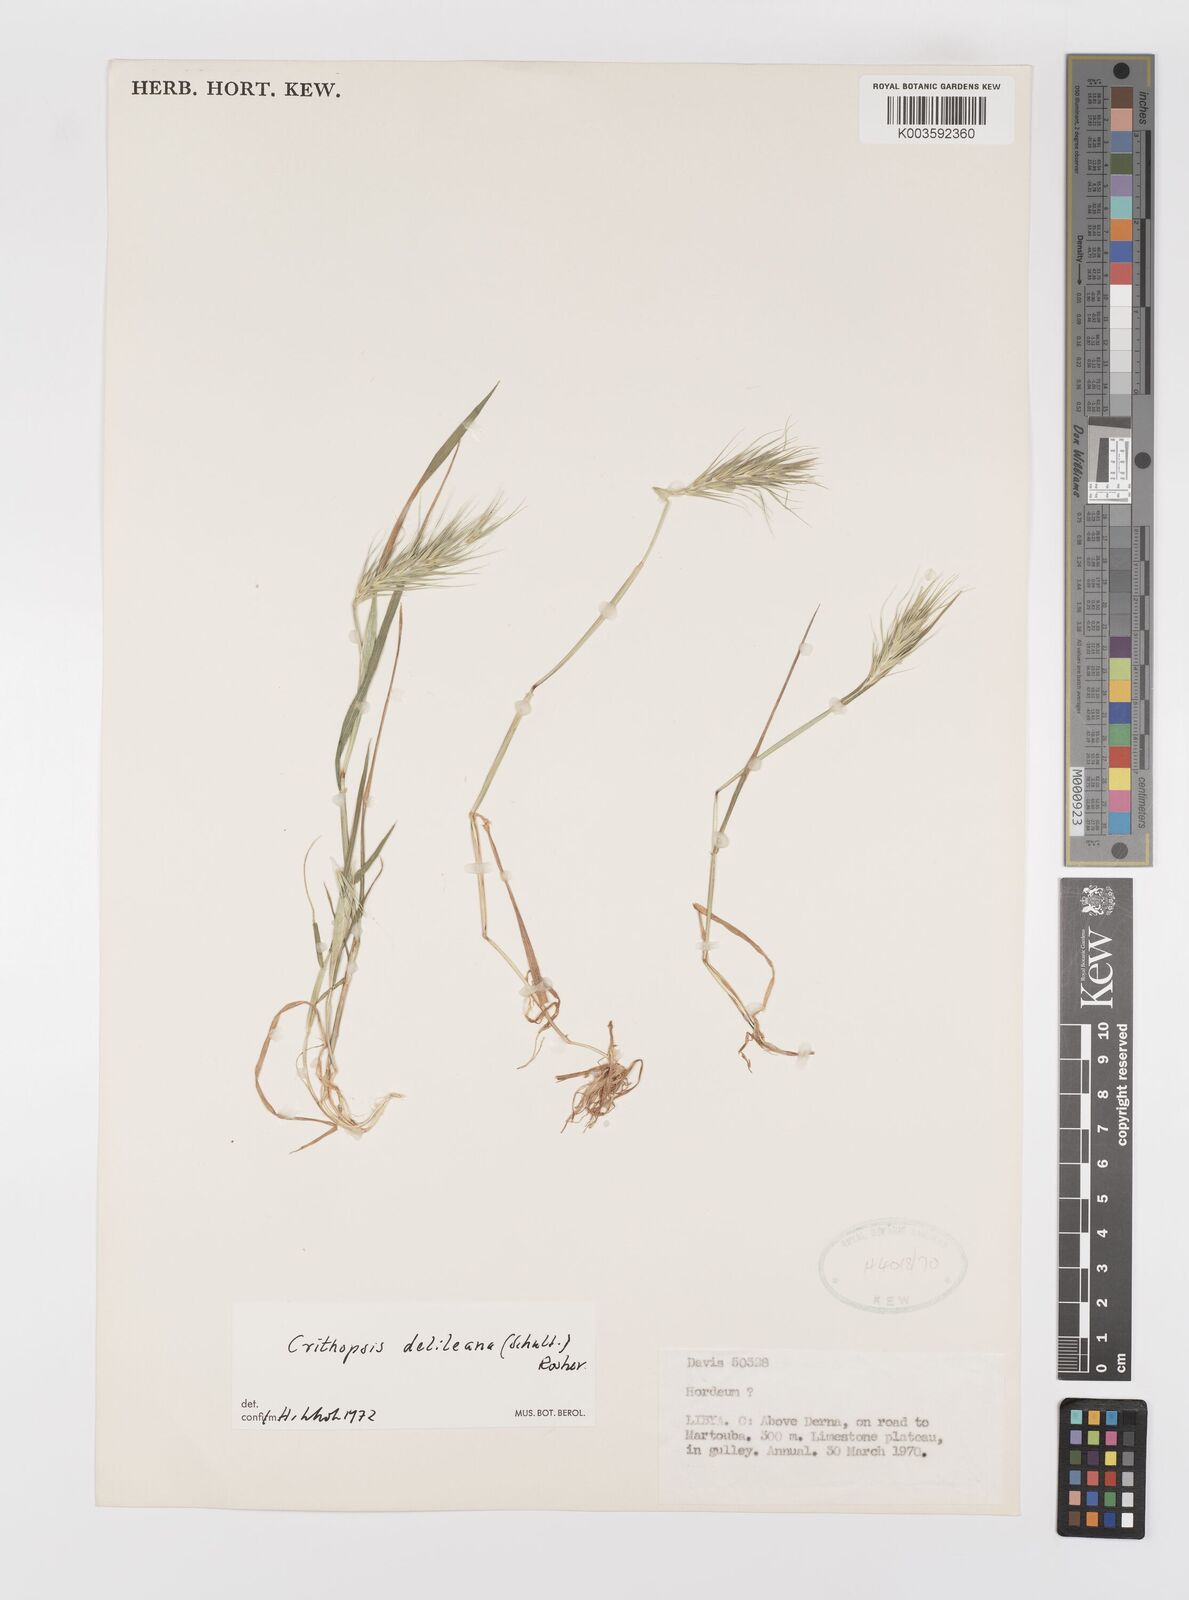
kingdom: Plantae
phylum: Tracheophyta
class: Liliopsida
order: Poales
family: Poaceae
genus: Crithopsis
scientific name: Crithopsis delileana
